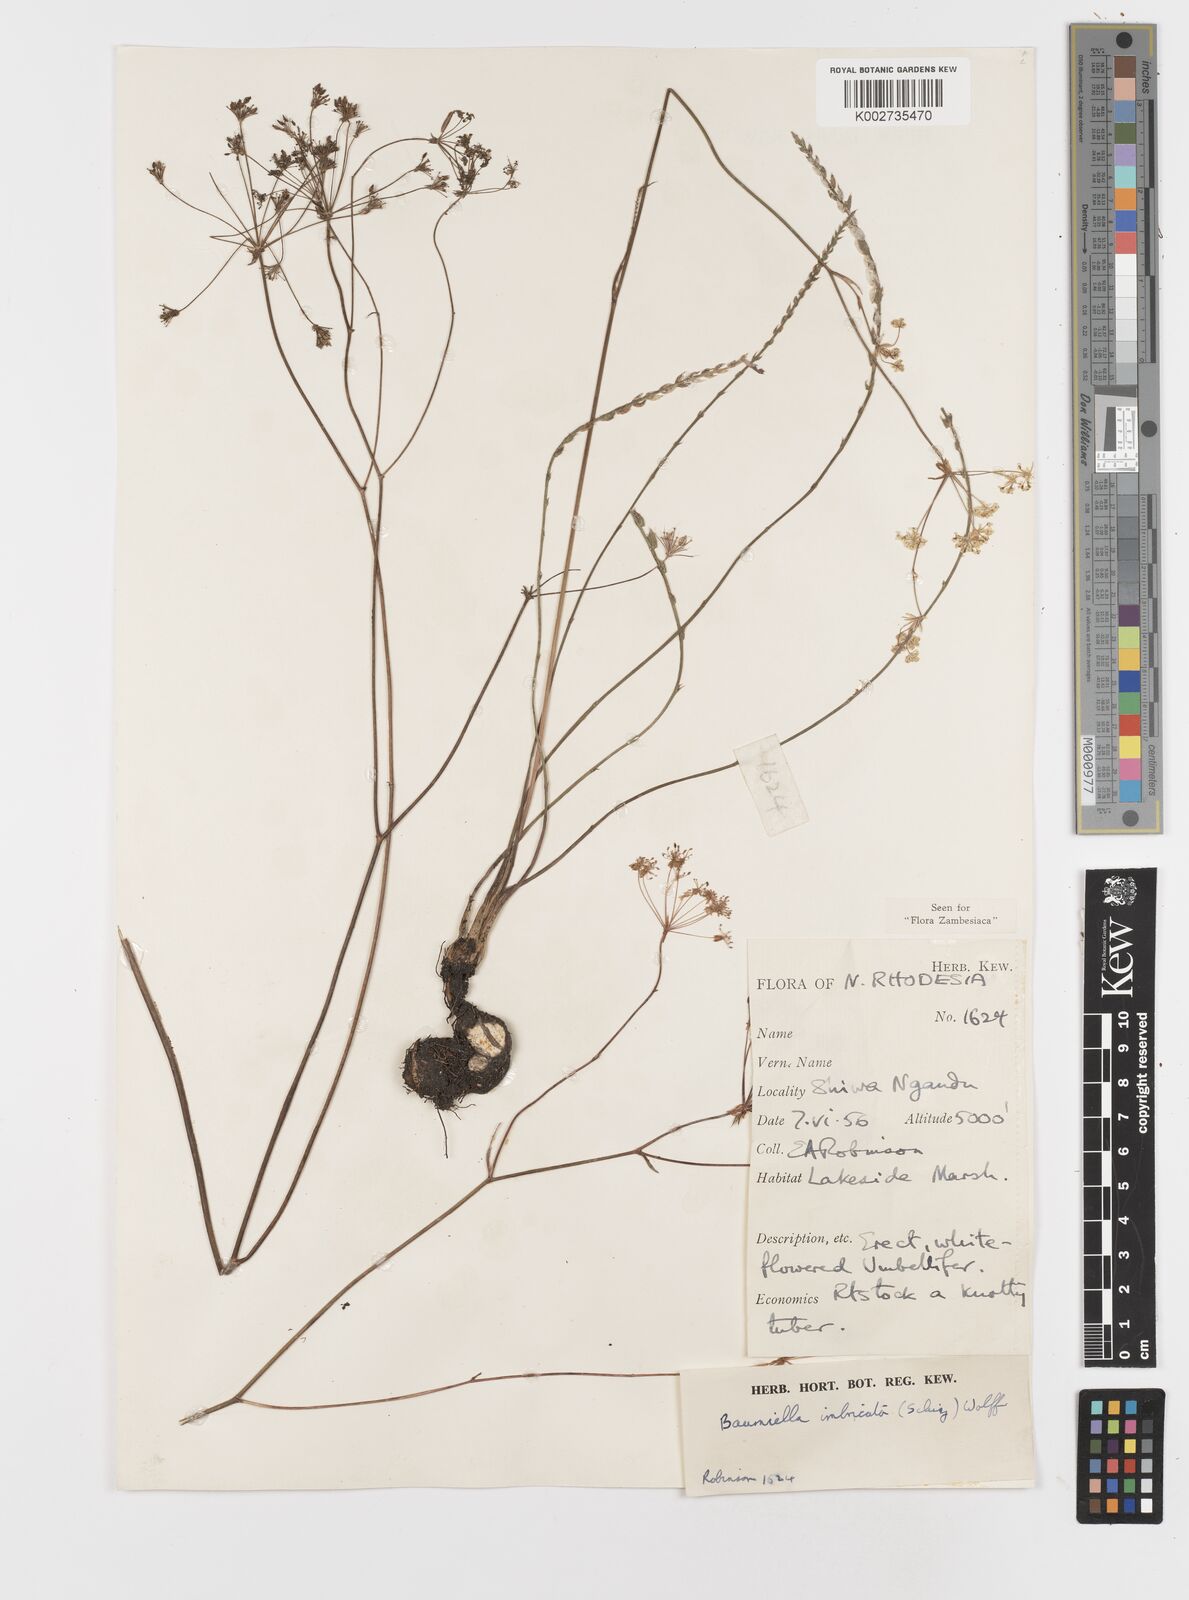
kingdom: Plantae
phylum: Tracheophyta
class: Magnoliopsida
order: Apiales
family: Apiaceae
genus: Berula
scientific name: Berula imbricata
